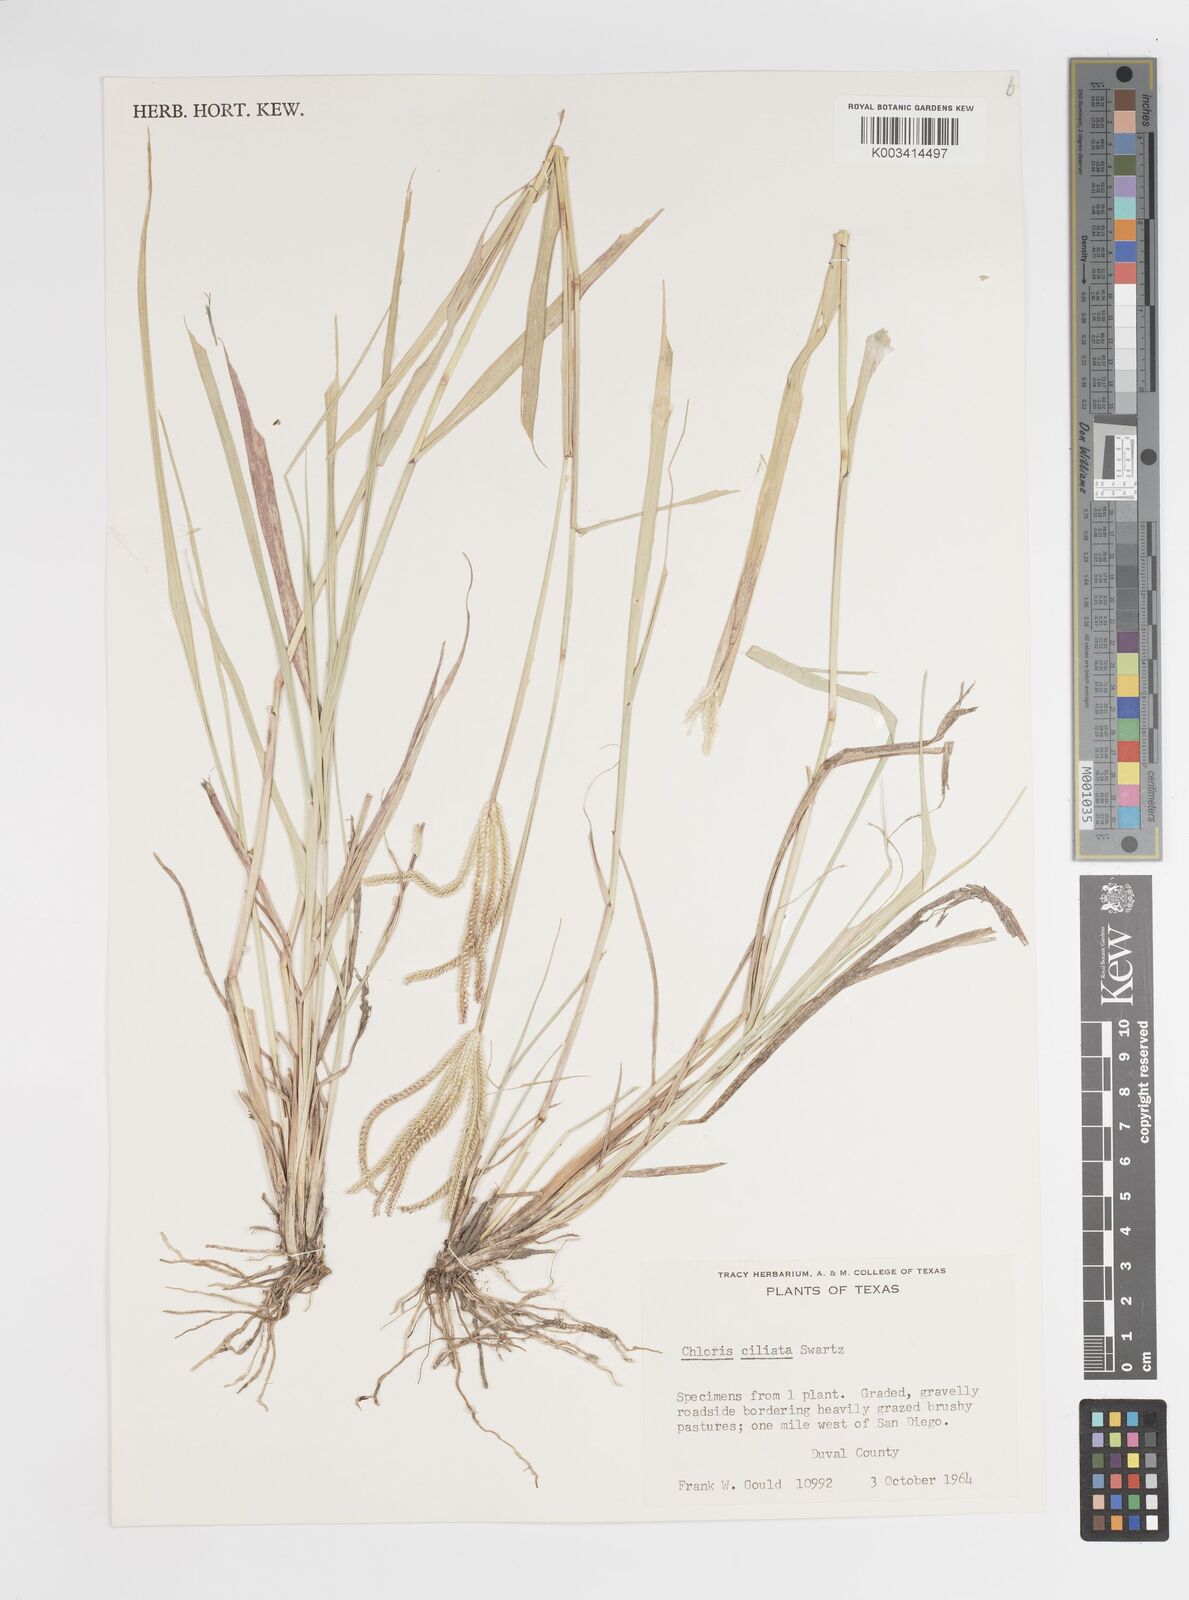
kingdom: Plantae
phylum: Tracheophyta
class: Liliopsida
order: Poales
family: Poaceae
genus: Stapfochloa
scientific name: Stapfochloa ciliata
